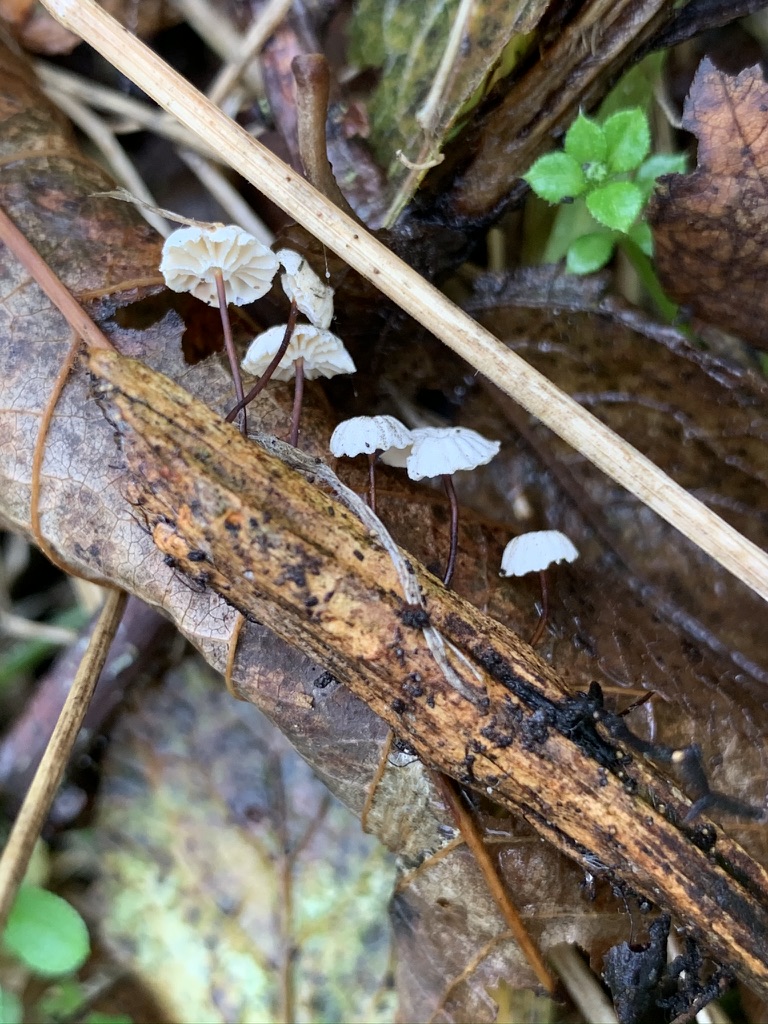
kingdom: Fungi
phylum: Basidiomycota
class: Agaricomycetes
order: Agaricales
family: Marasmiaceae
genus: Marasmius
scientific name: Marasmius rotula
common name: hjul-bruskhat
